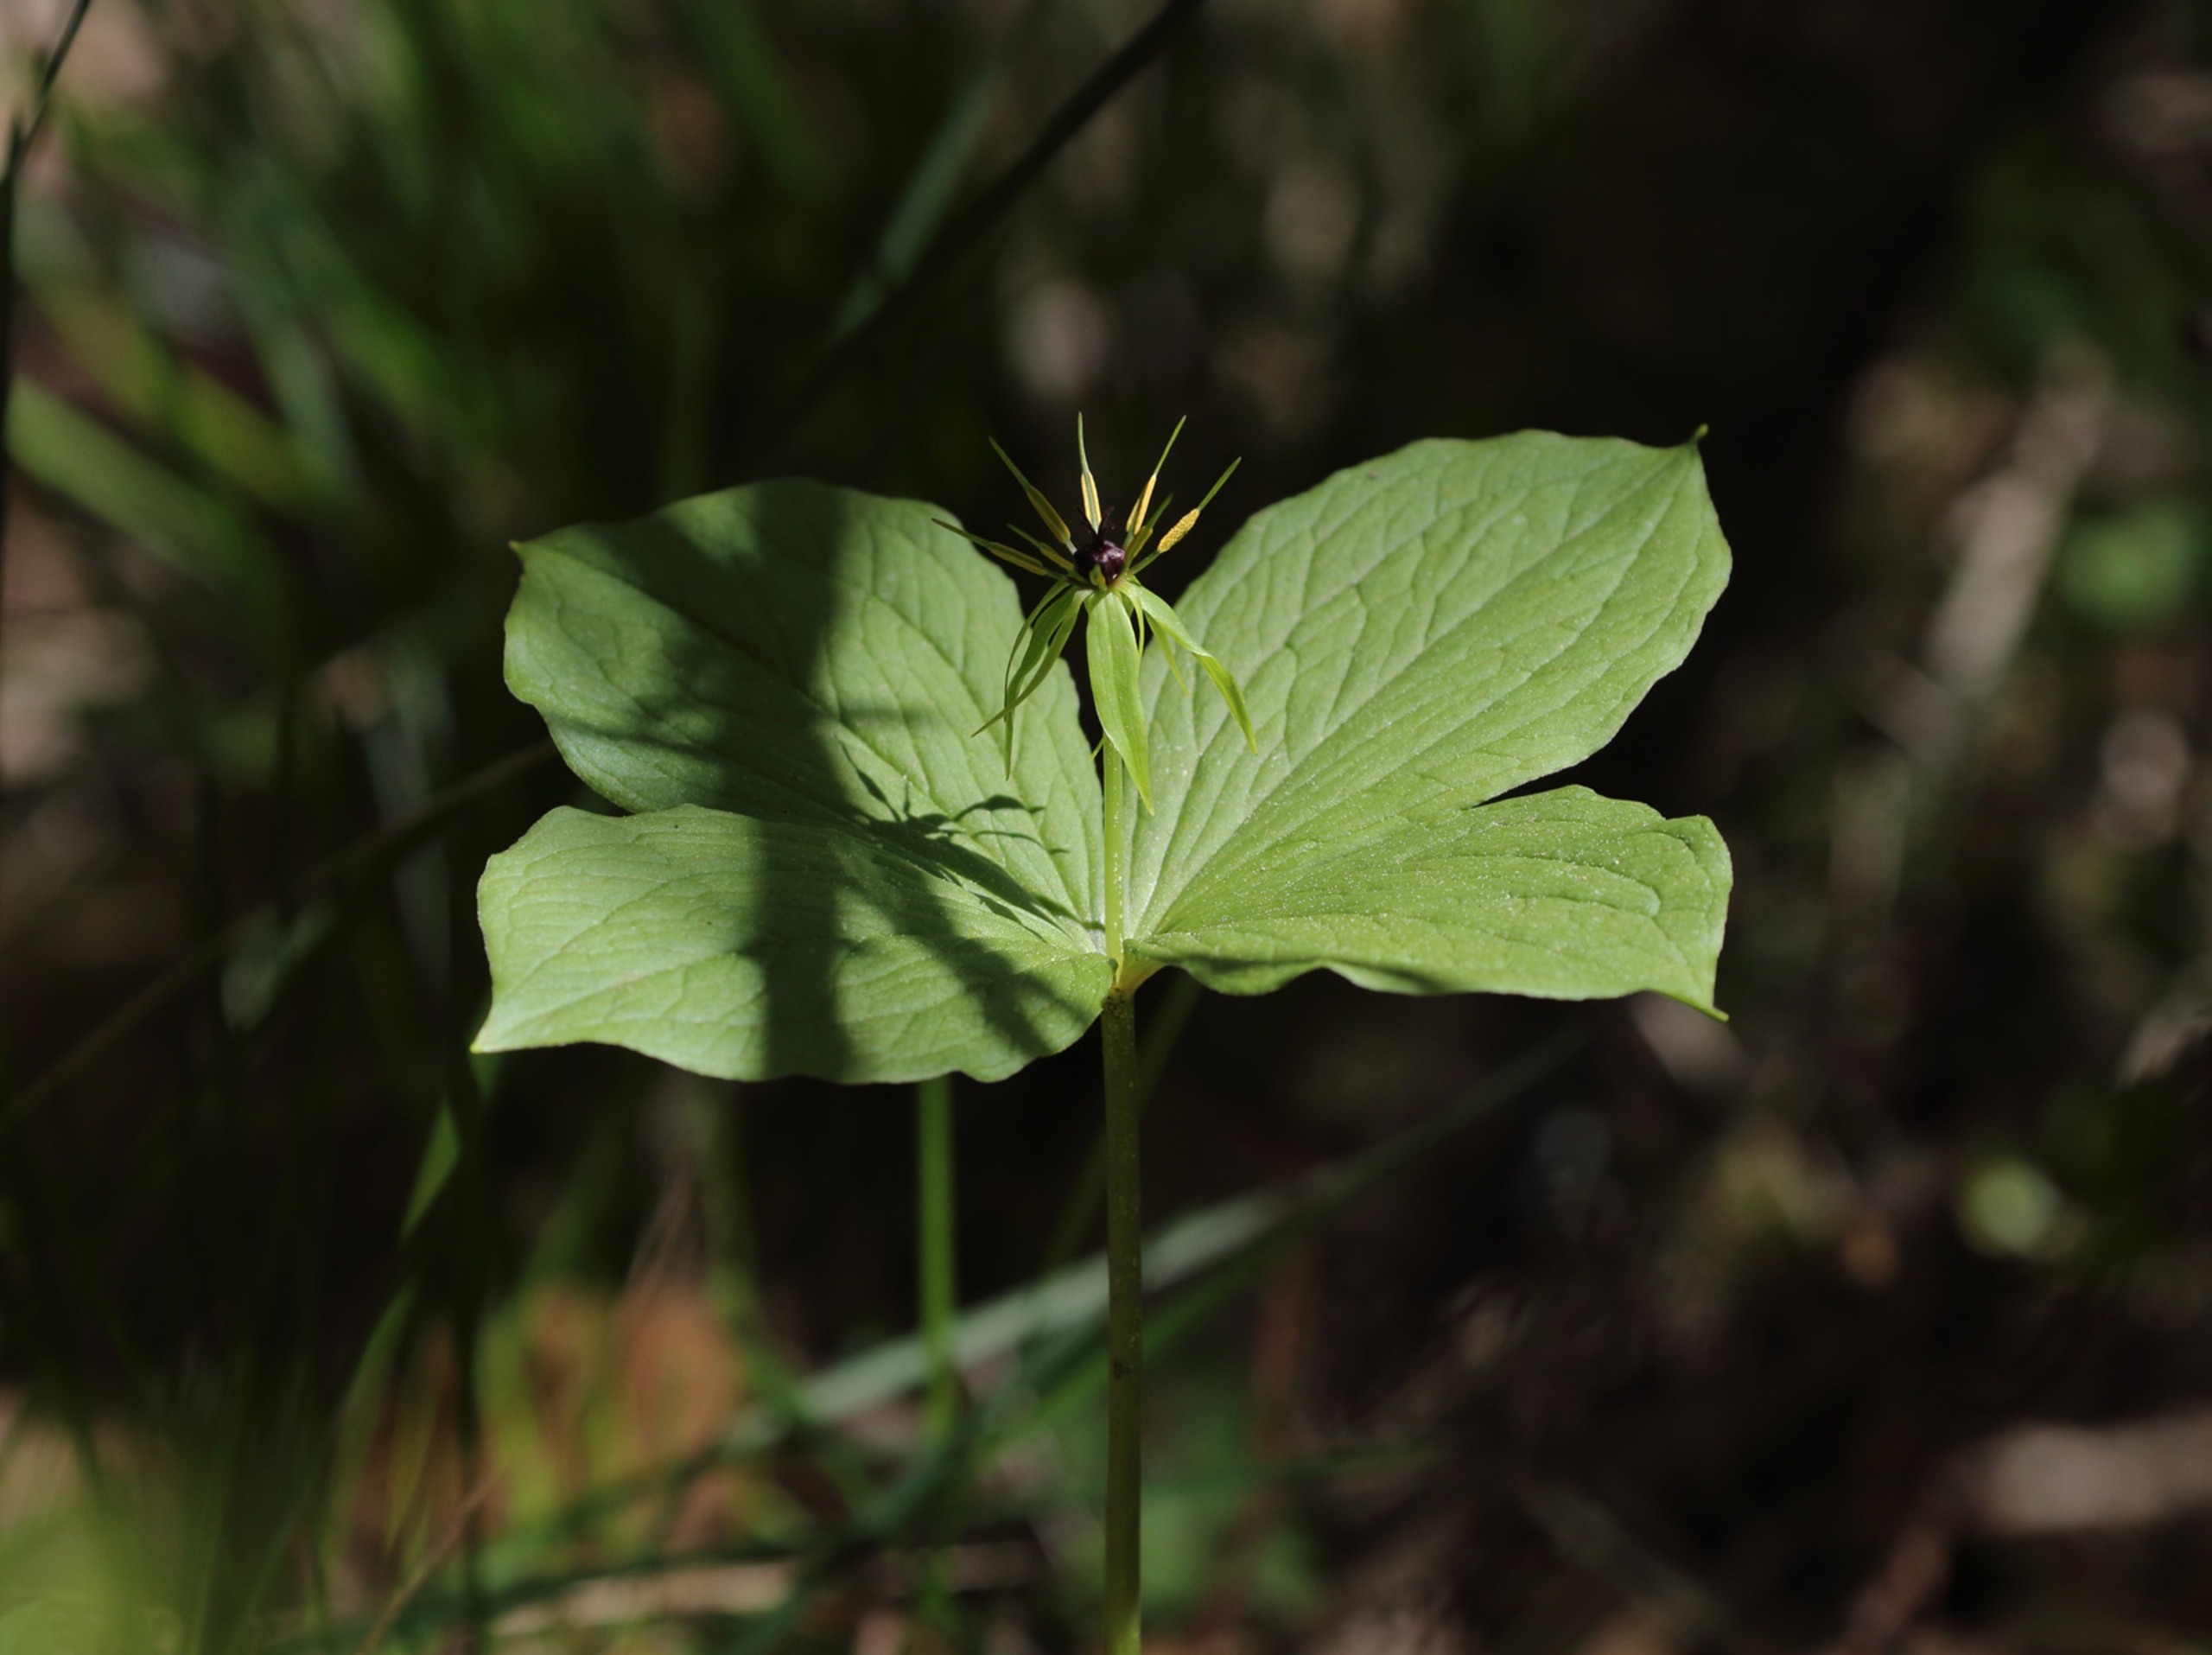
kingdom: Plantae
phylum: Tracheophyta
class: Liliopsida
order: Liliales
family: Melanthiaceae
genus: Paris
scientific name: Paris quadrifolia
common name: Firblad
